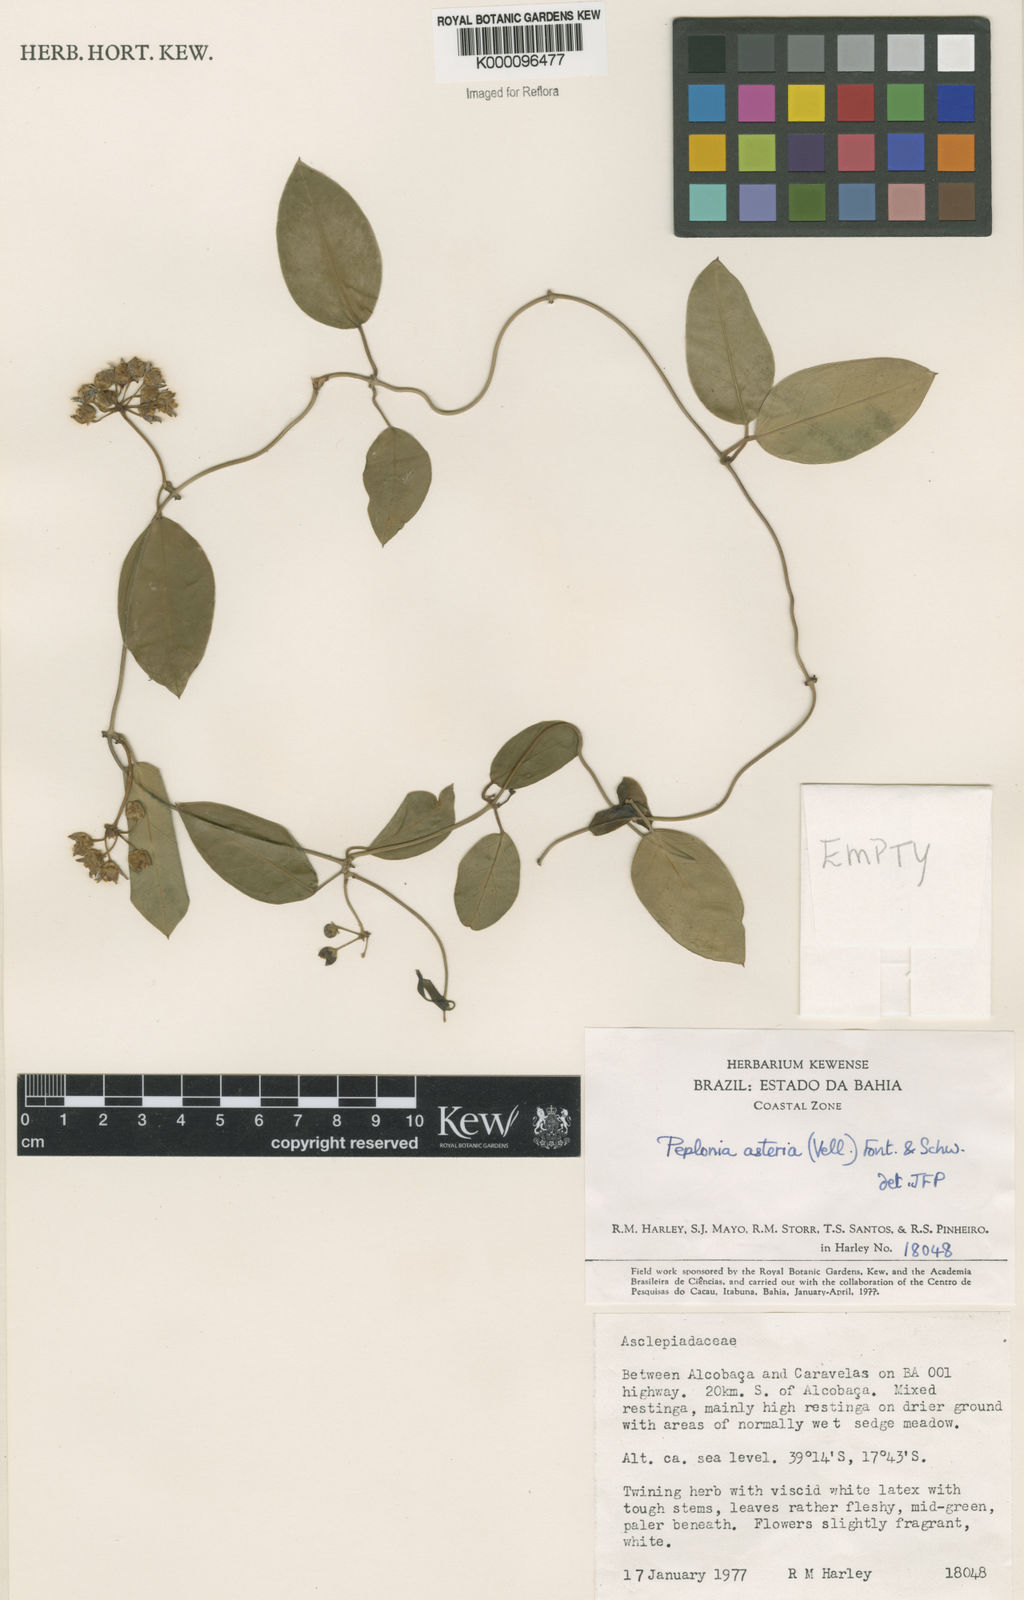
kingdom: Plantae
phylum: Tracheophyta
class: Magnoliopsida
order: Gentianales
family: Apocynaceae
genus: Peplonia
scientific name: Peplonia asteria
